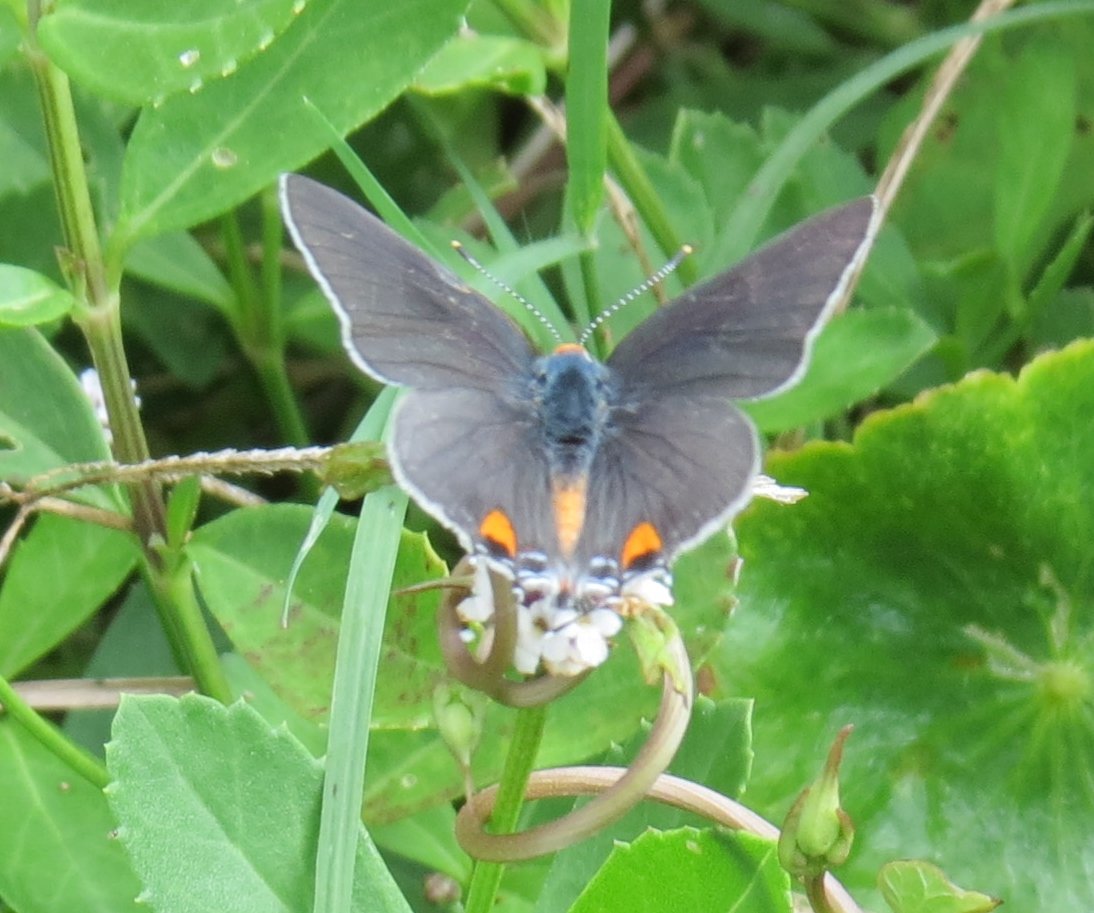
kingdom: Animalia
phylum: Arthropoda
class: Insecta
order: Lepidoptera
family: Lycaenidae
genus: Strymon
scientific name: Strymon melinus
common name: Gray Hairstreak
